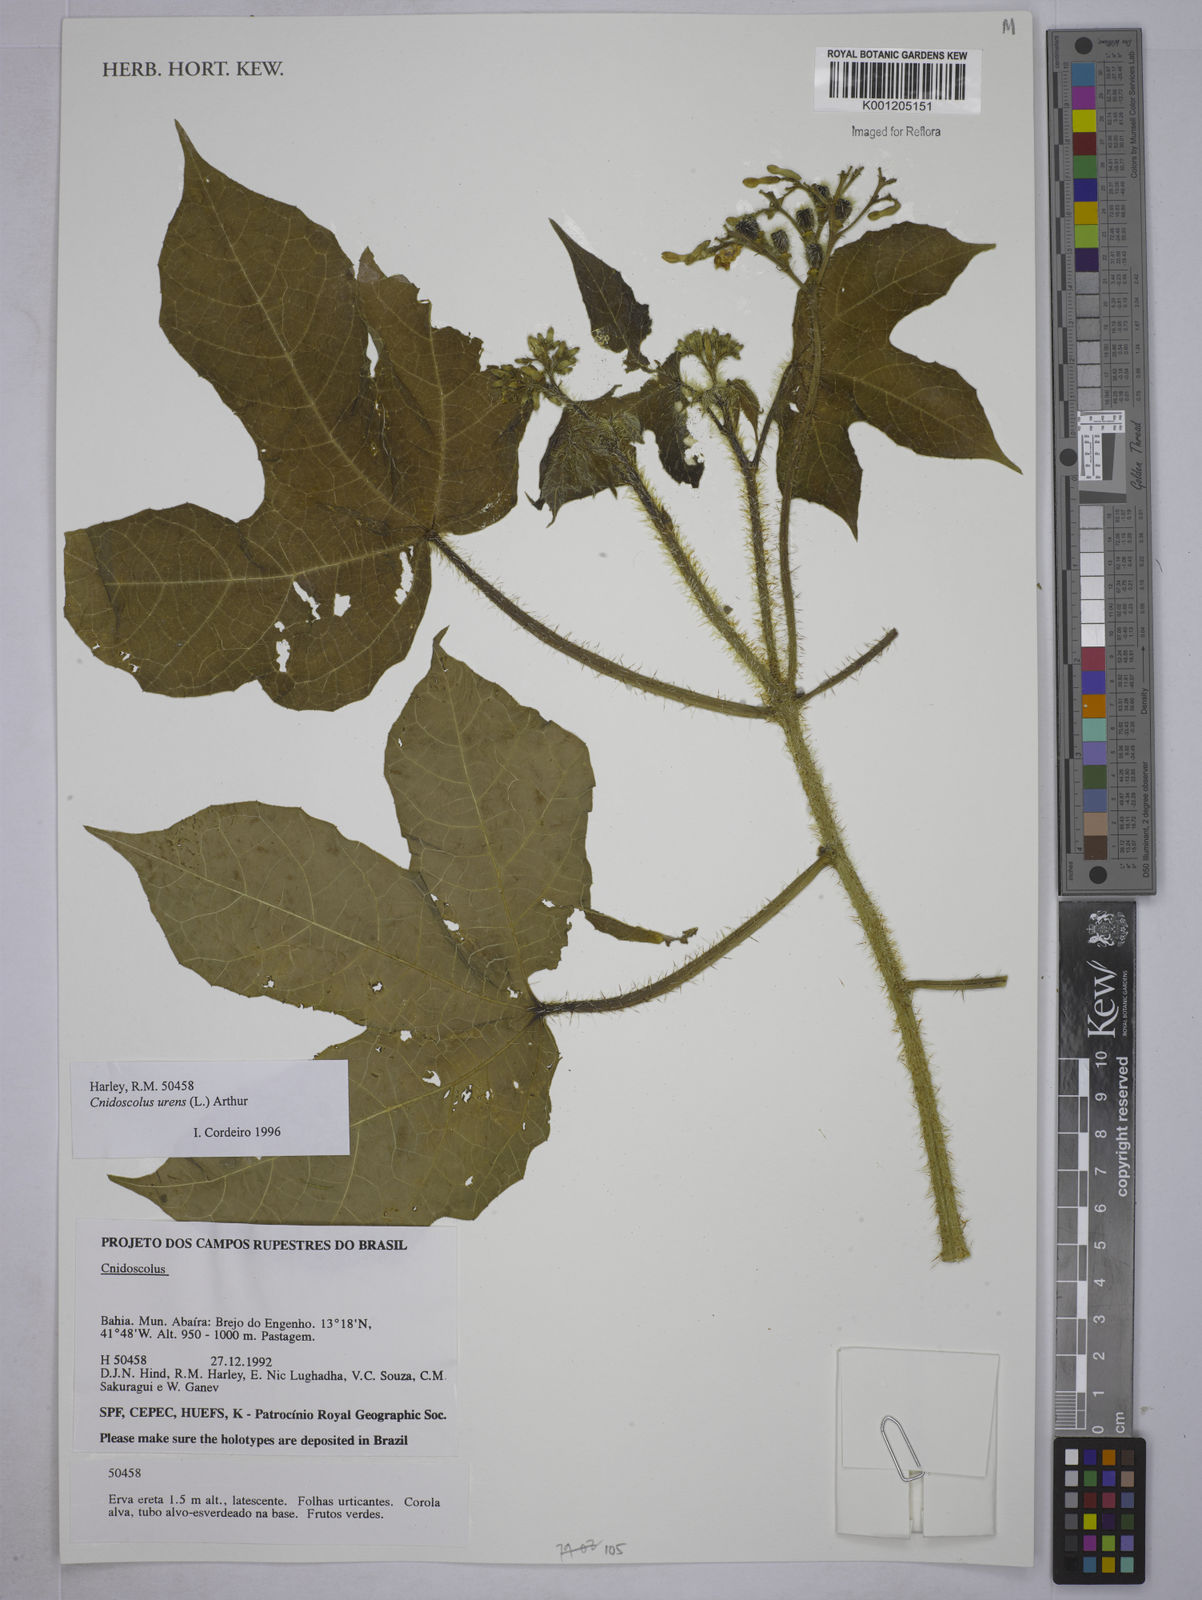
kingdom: Plantae
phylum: Tracheophyta
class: Magnoliopsida
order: Malpighiales
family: Euphorbiaceae
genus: Cnidoscolus
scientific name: Cnidoscolus urens
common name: Bull-nettle
